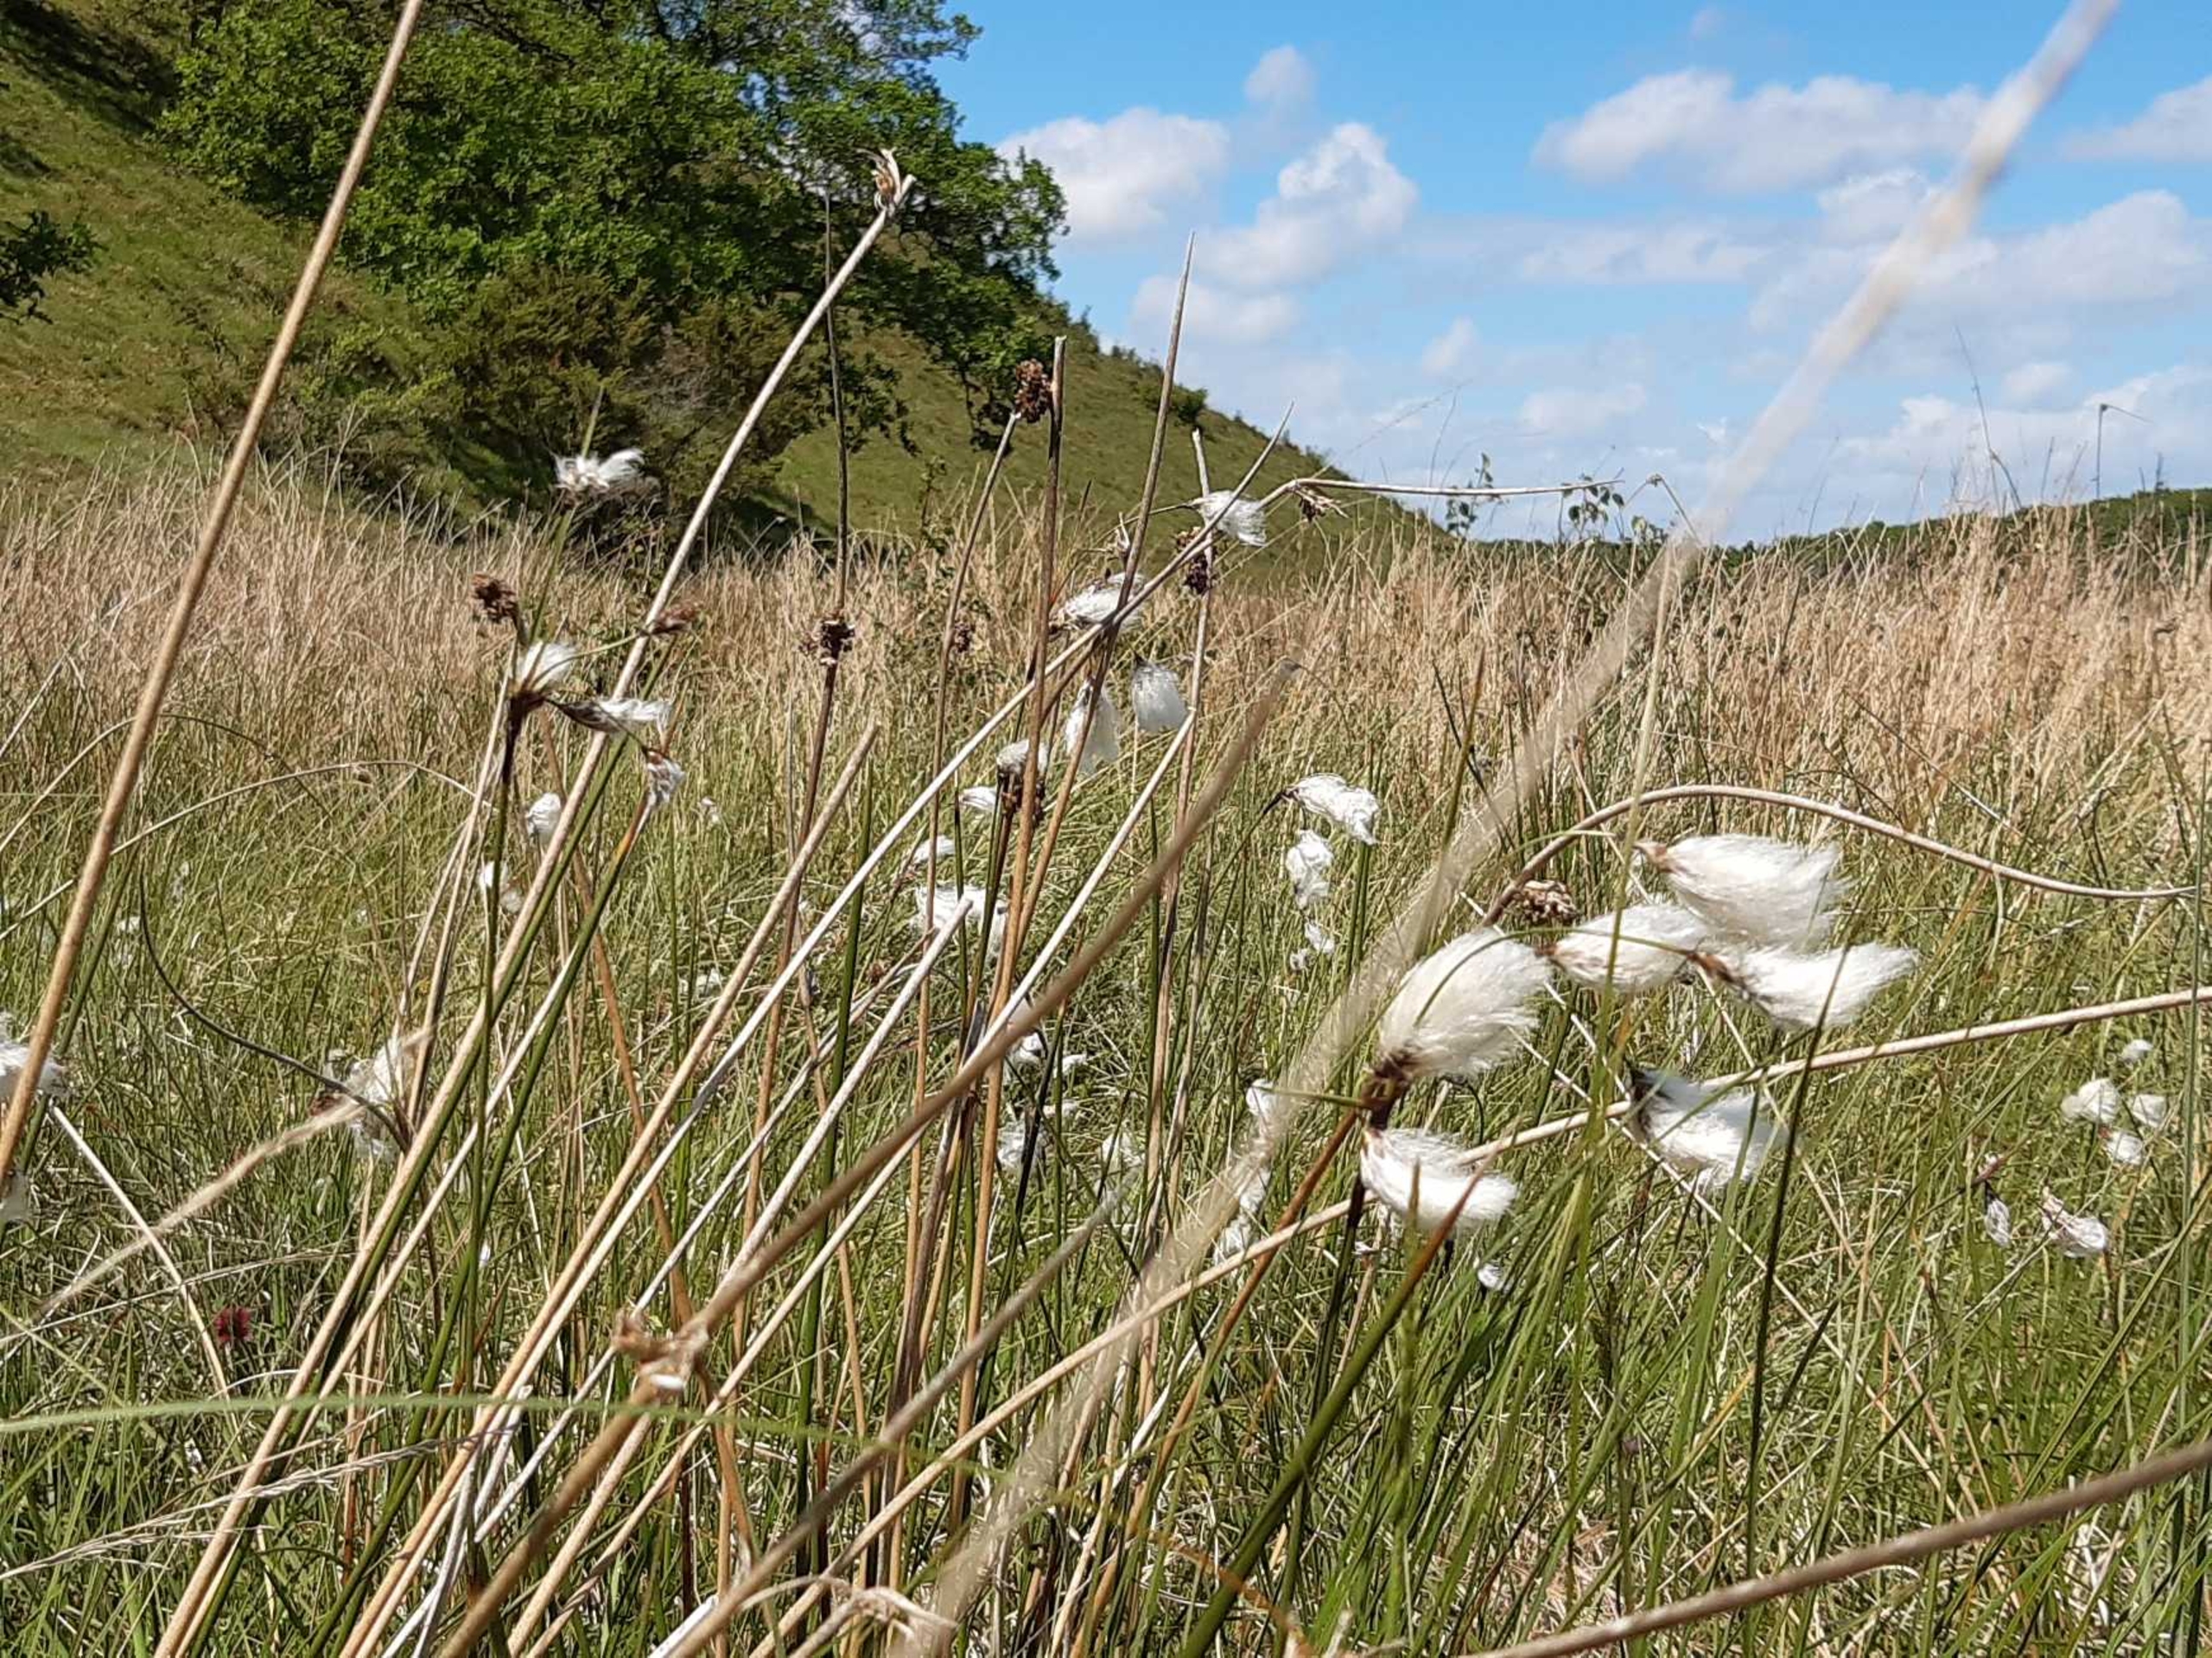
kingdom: Plantae
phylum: Tracheophyta
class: Liliopsida
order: Poales
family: Cyperaceae
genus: Eriophorum
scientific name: Eriophorum angustifolium
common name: Smalbladet kæruld
